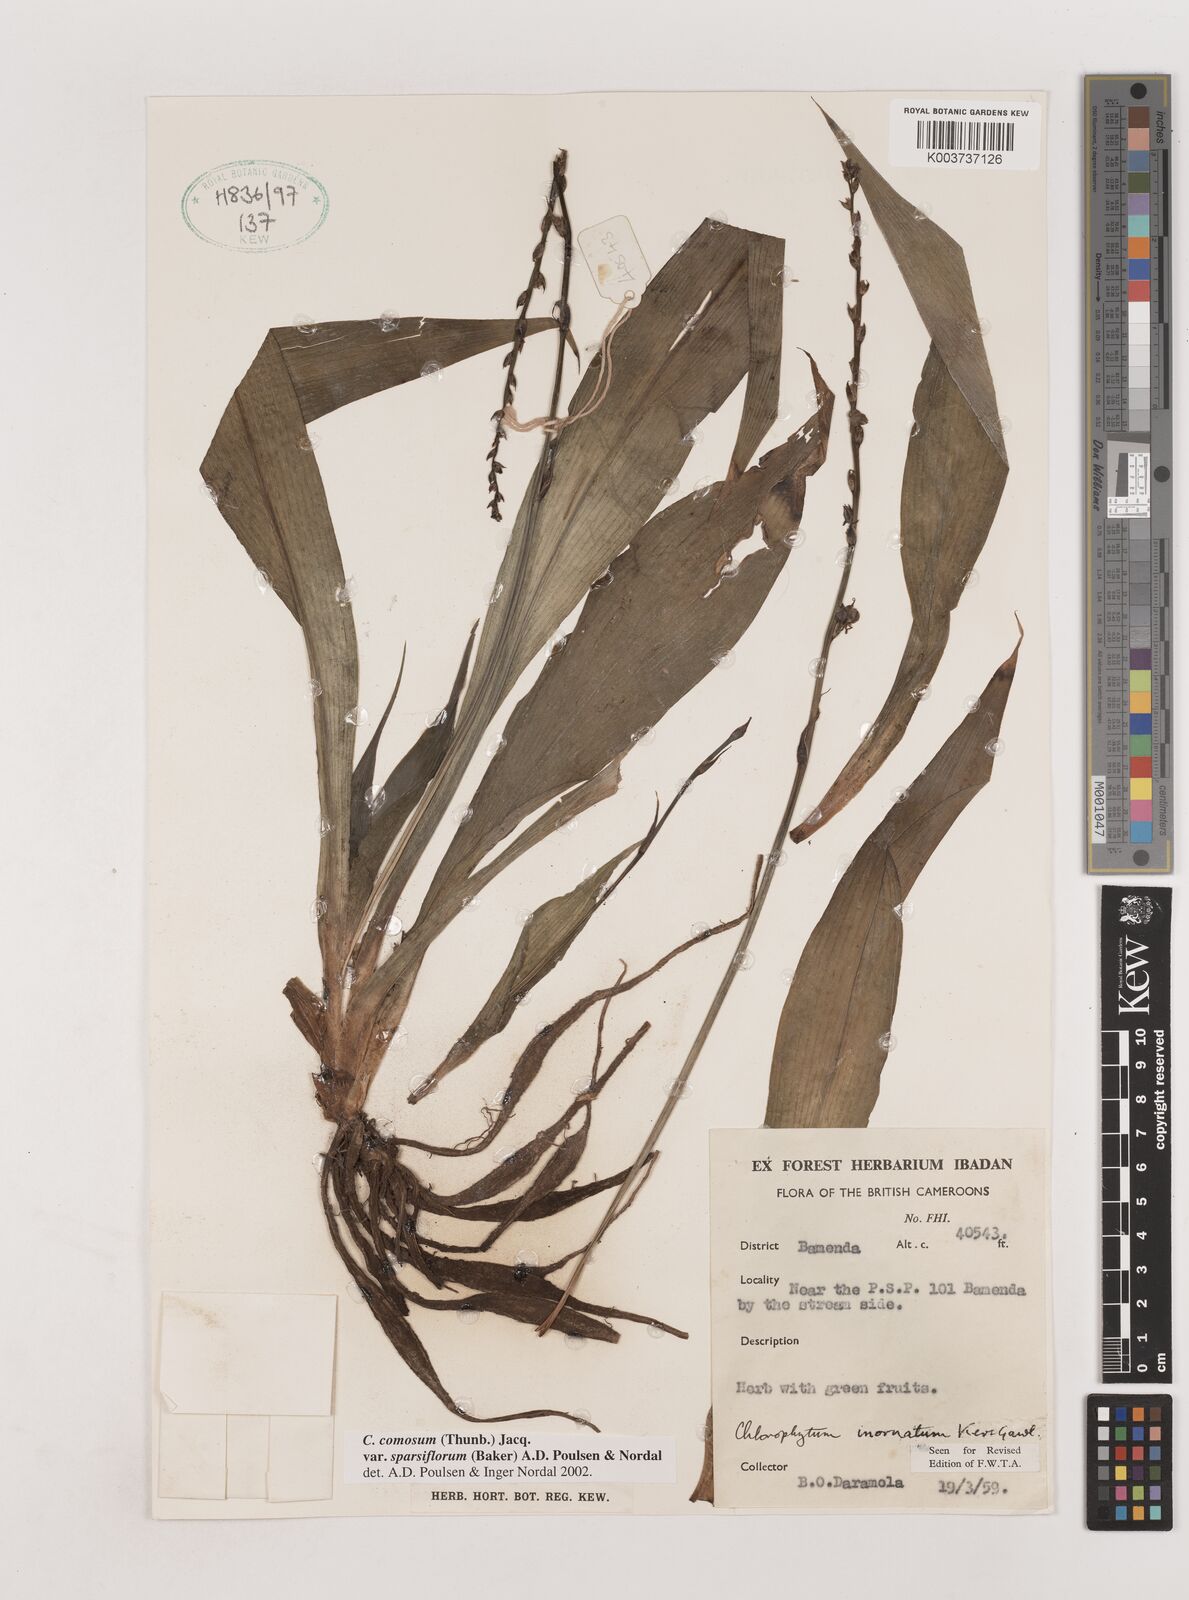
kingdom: Plantae
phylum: Tracheophyta
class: Liliopsida
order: Asparagales
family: Asparagaceae
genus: Chlorophytum
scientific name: Chlorophytum sparsiflorum
